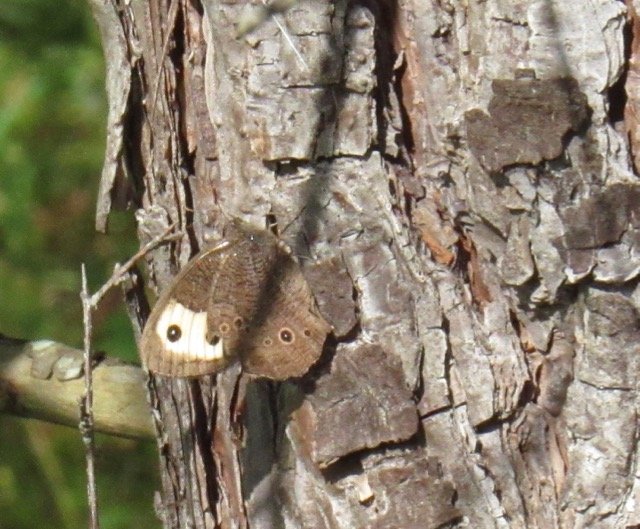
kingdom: Animalia
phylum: Arthropoda
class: Insecta
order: Lepidoptera
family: Nymphalidae
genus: Cercyonis
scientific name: Cercyonis pegala
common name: Common Wood-Nymph
